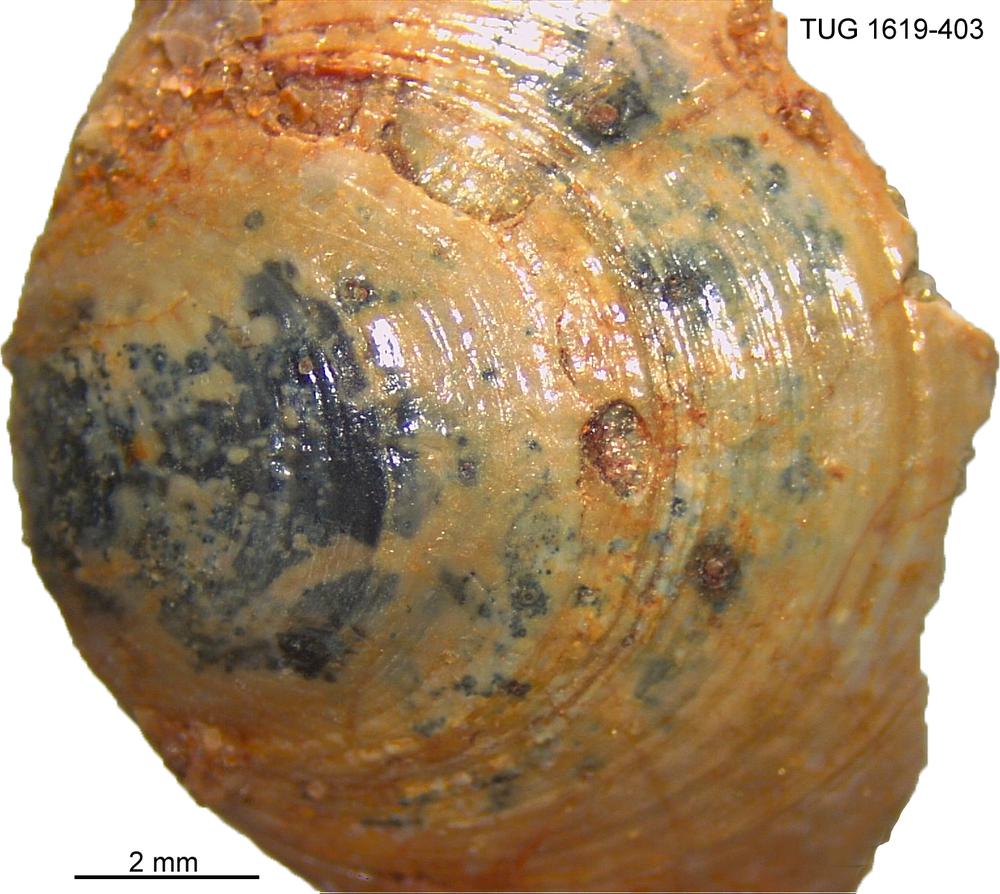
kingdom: Animalia
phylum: Porifera
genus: Ungula
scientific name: Ungula
